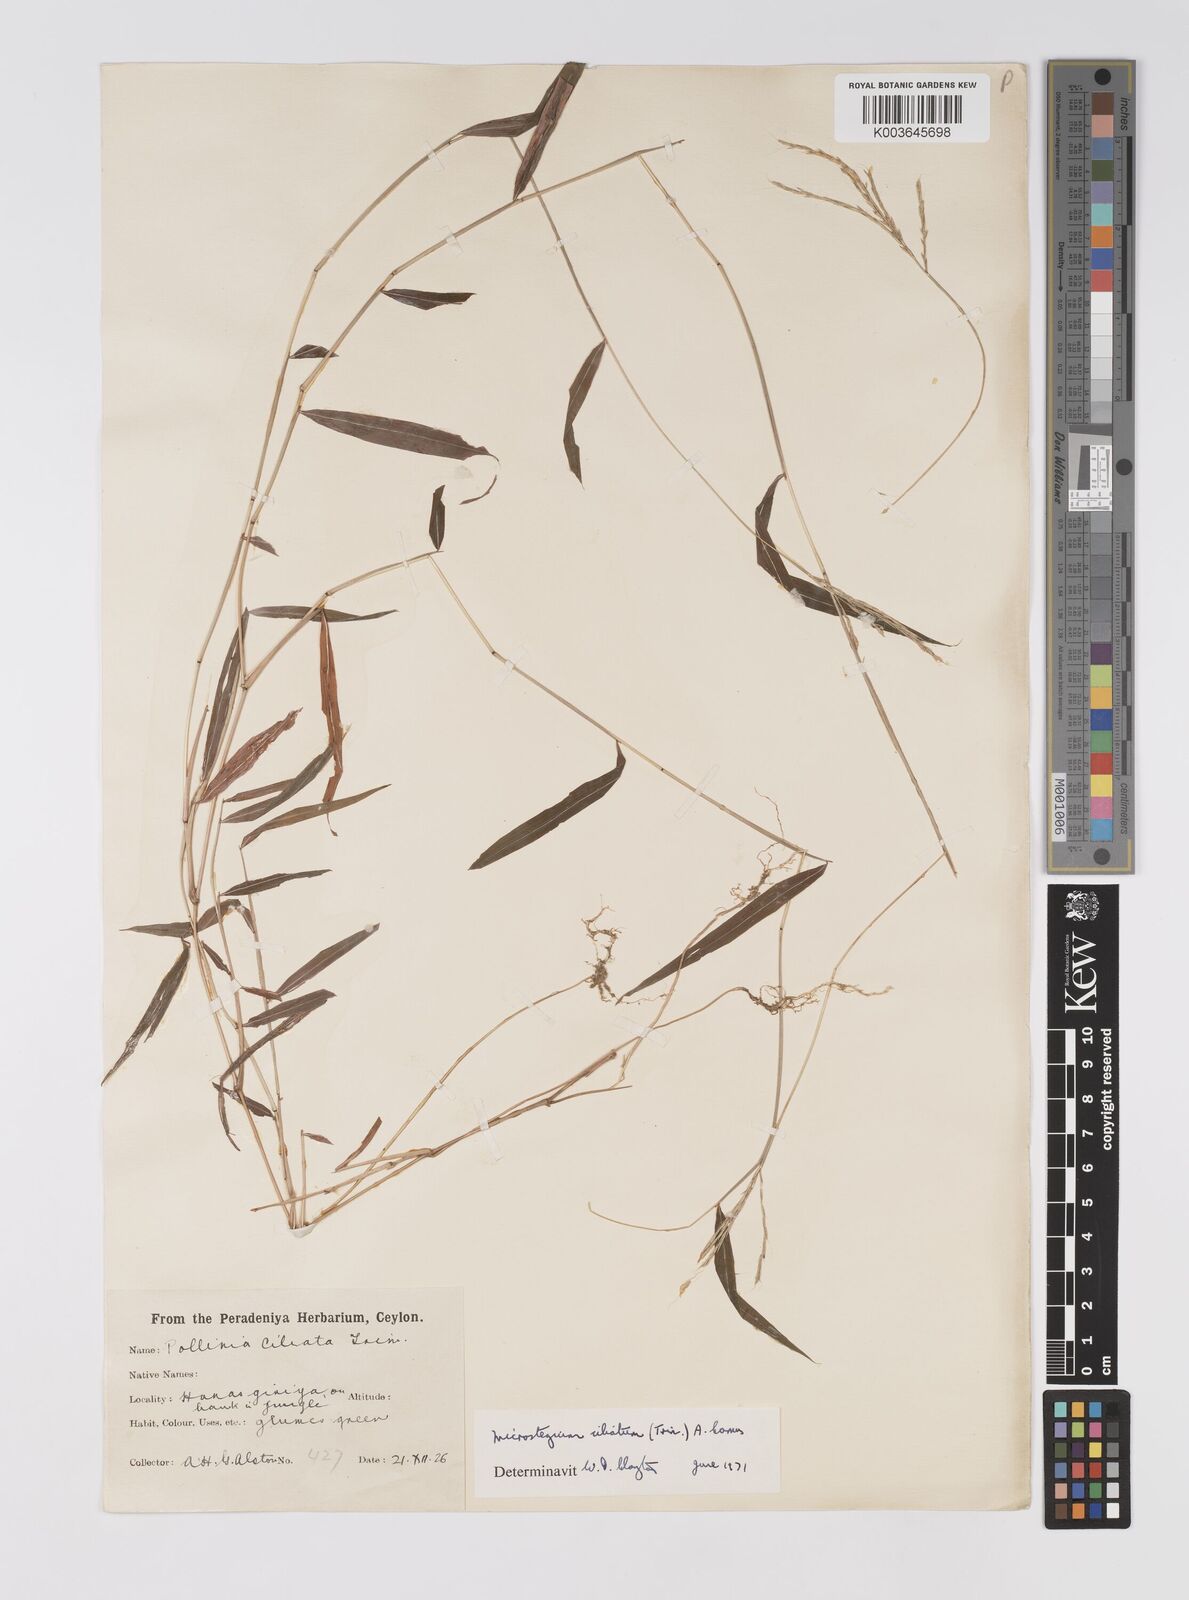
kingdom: Plantae
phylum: Tracheophyta
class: Liliopsida
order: Poales
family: Poaceae
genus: Microstegium
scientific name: Microstegium fasciculatum
